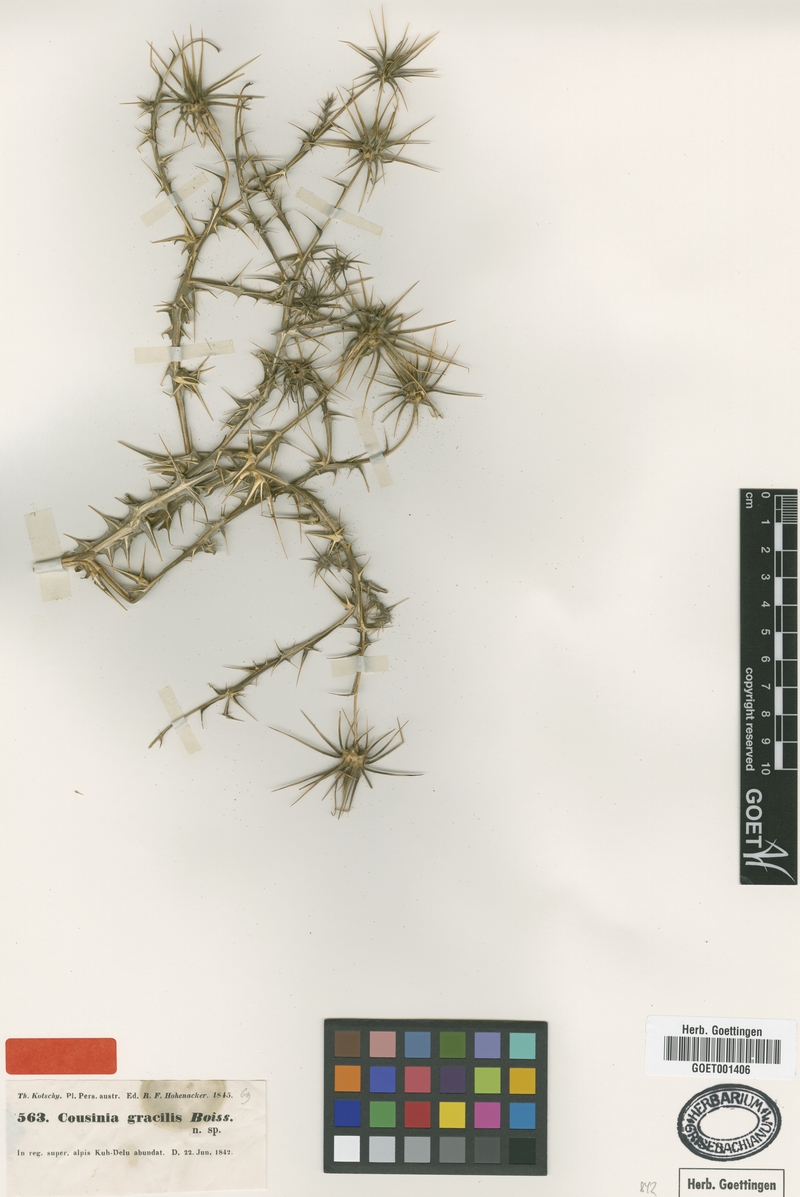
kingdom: Plantae
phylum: Tracheophyta
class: Magnoliopsida
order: Asterales
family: Asteraceae
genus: Cousinia
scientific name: Cousinia gracilis
